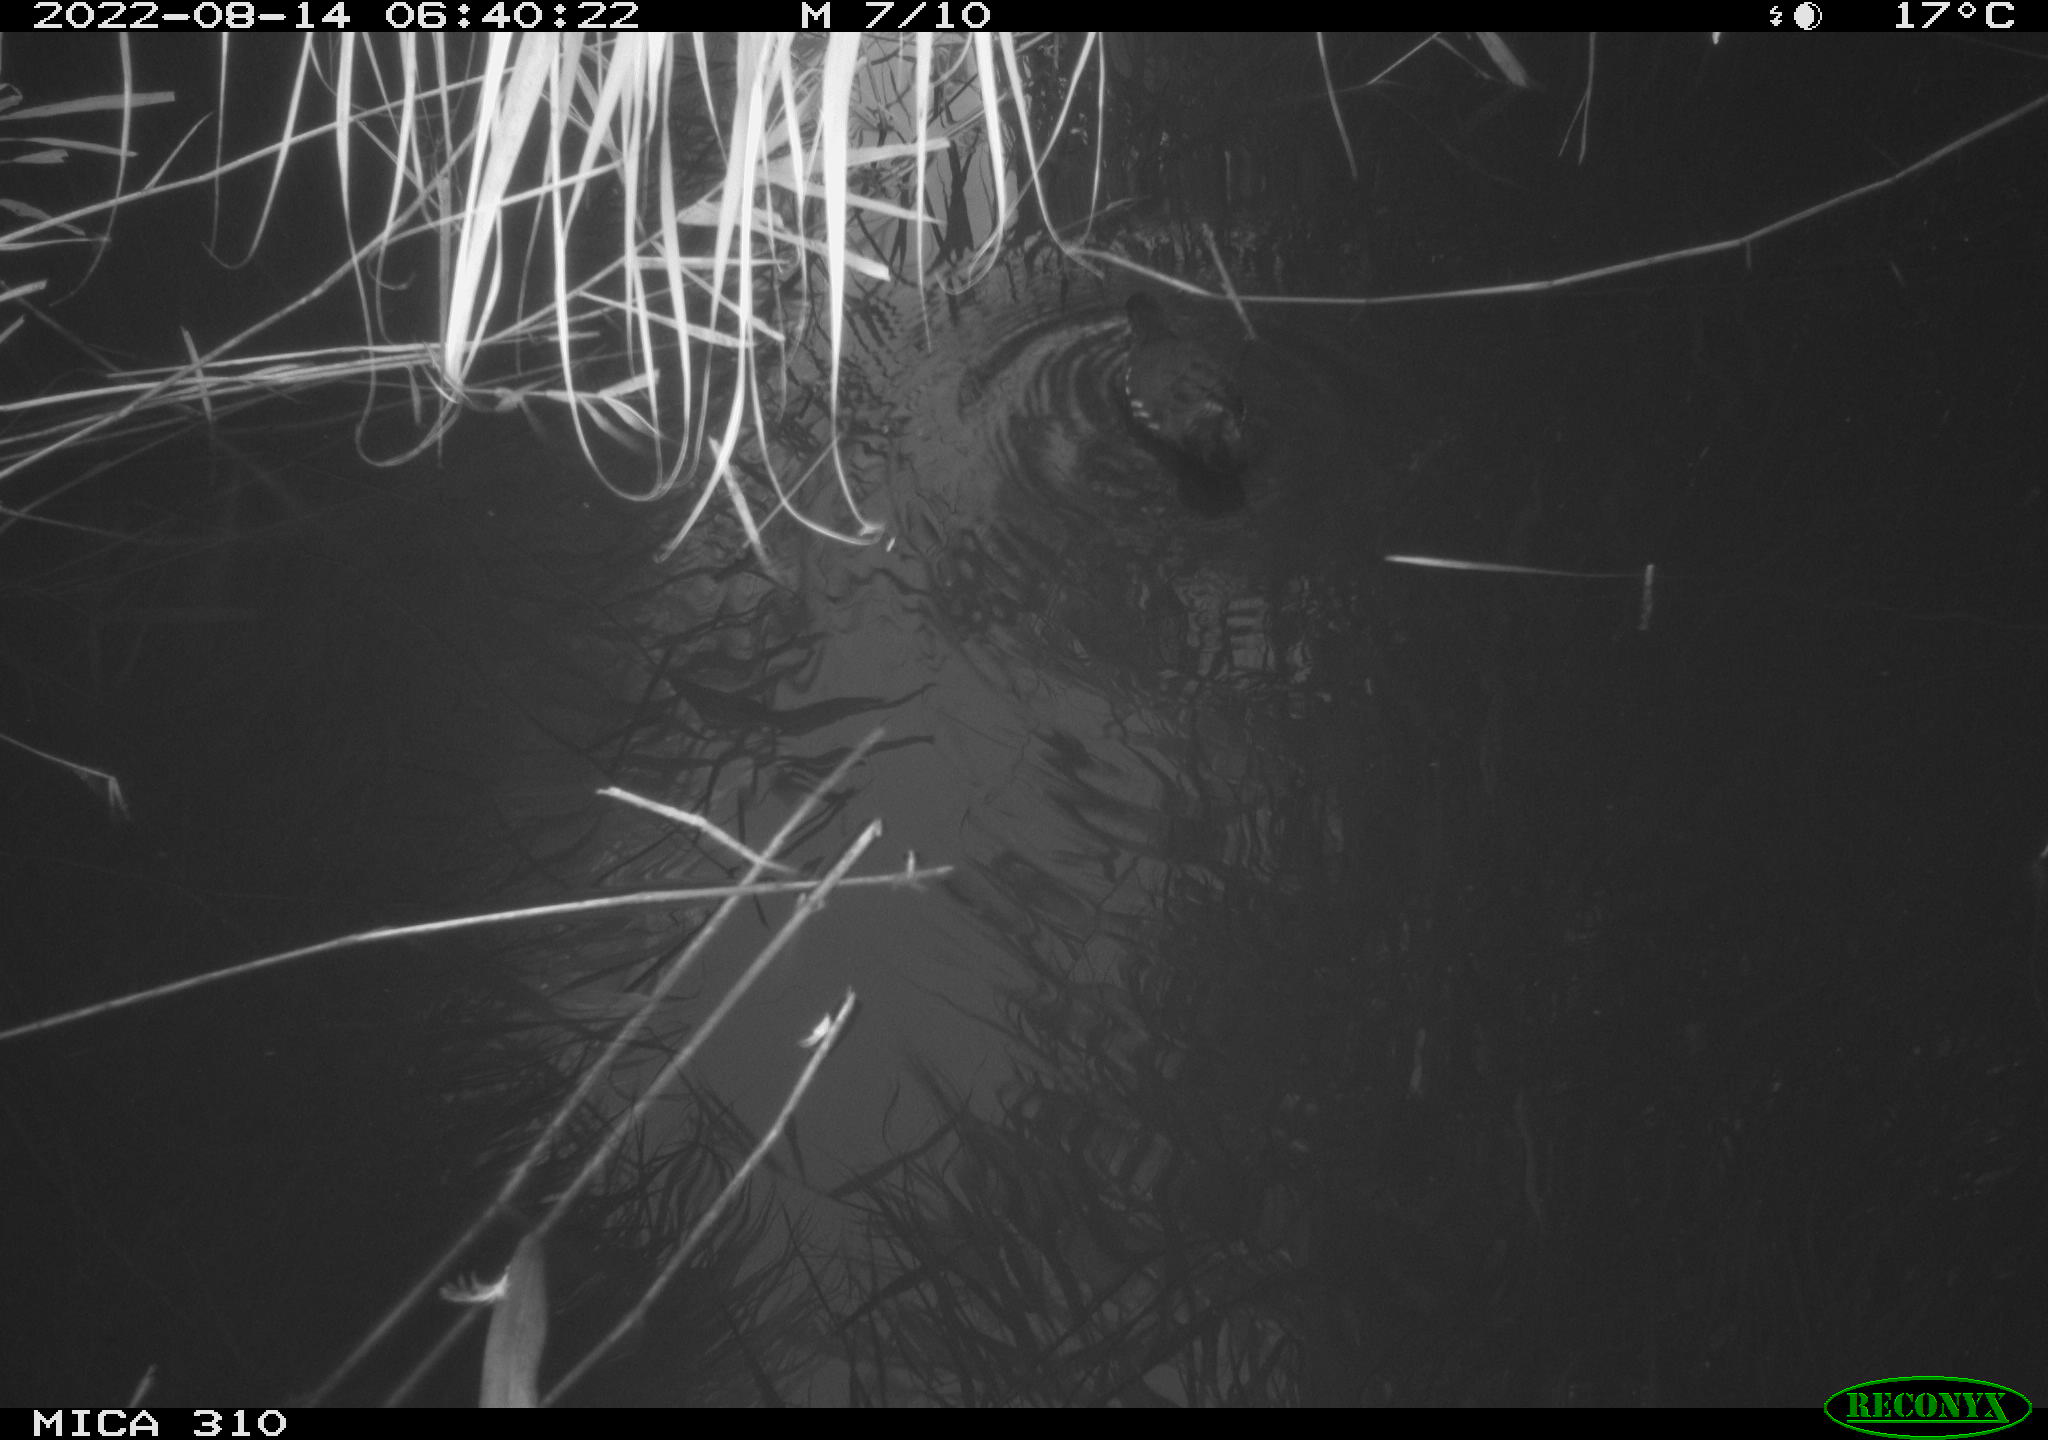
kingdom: Animalia
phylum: Chordata
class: Aves
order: Gruiformes
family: Rallidae
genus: Gallinula
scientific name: Gallinula chloropus
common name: Common moorhen
